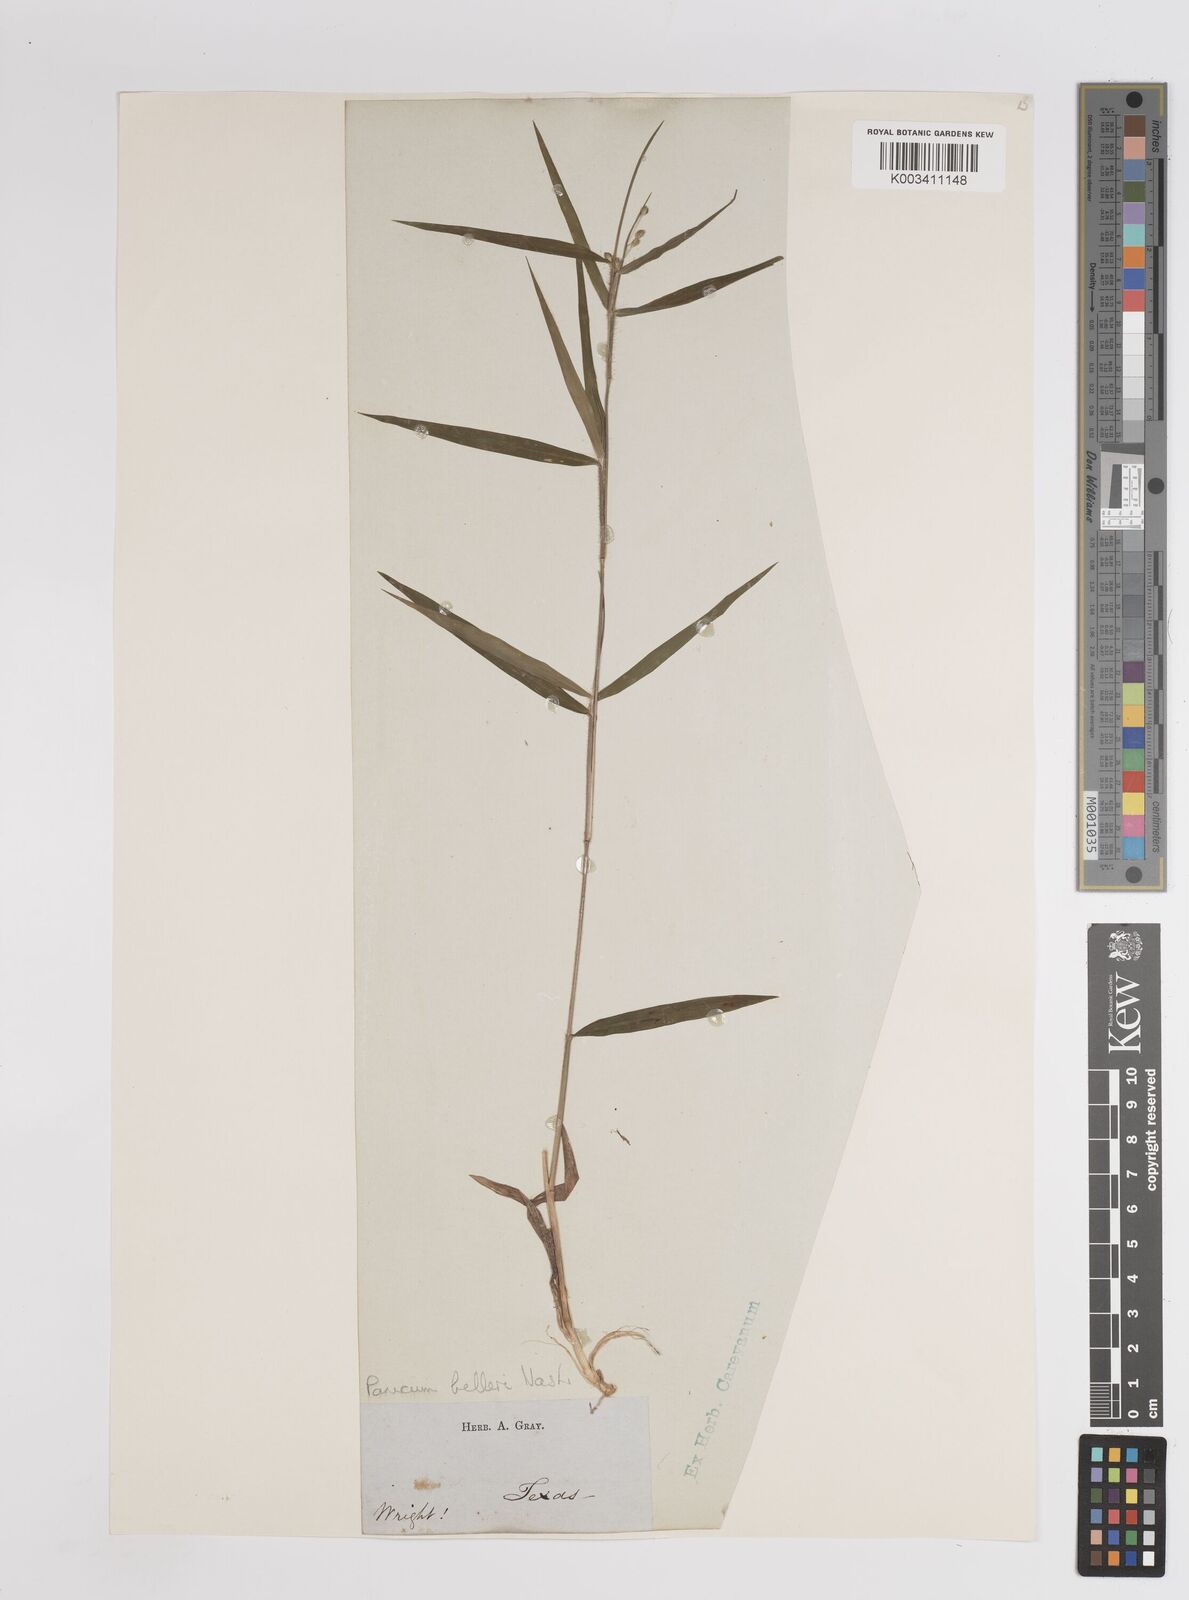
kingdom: Plantae
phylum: Tracheophyta
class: Liliopsida
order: Poales
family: Poaceae
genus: Dichanthelium
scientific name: Dichanthelium oligosanthes
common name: Few-anther obscuregrass
